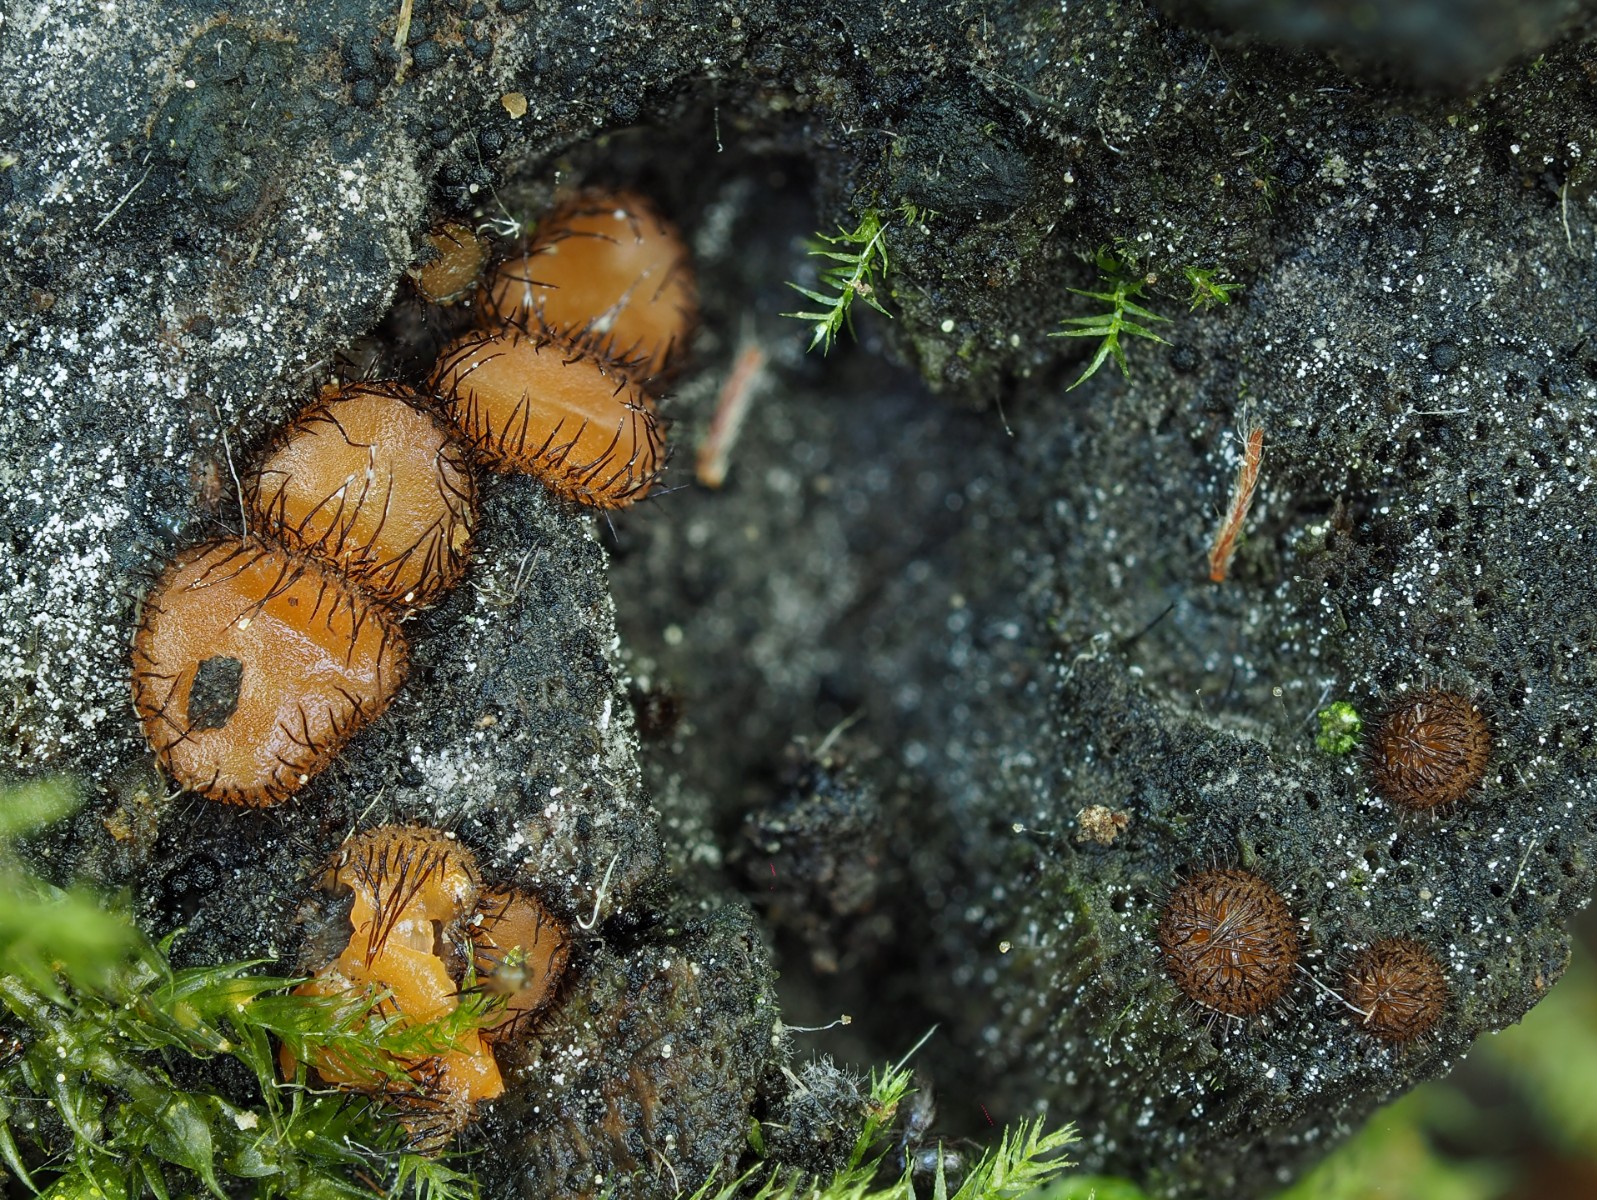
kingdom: Fungi
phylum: Ascomycota
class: Pezizomycetes
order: Pezizales
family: Pyronemataceae
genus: Scutellinia
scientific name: Scutellinia scutellata
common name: frynset skjoldbæger
